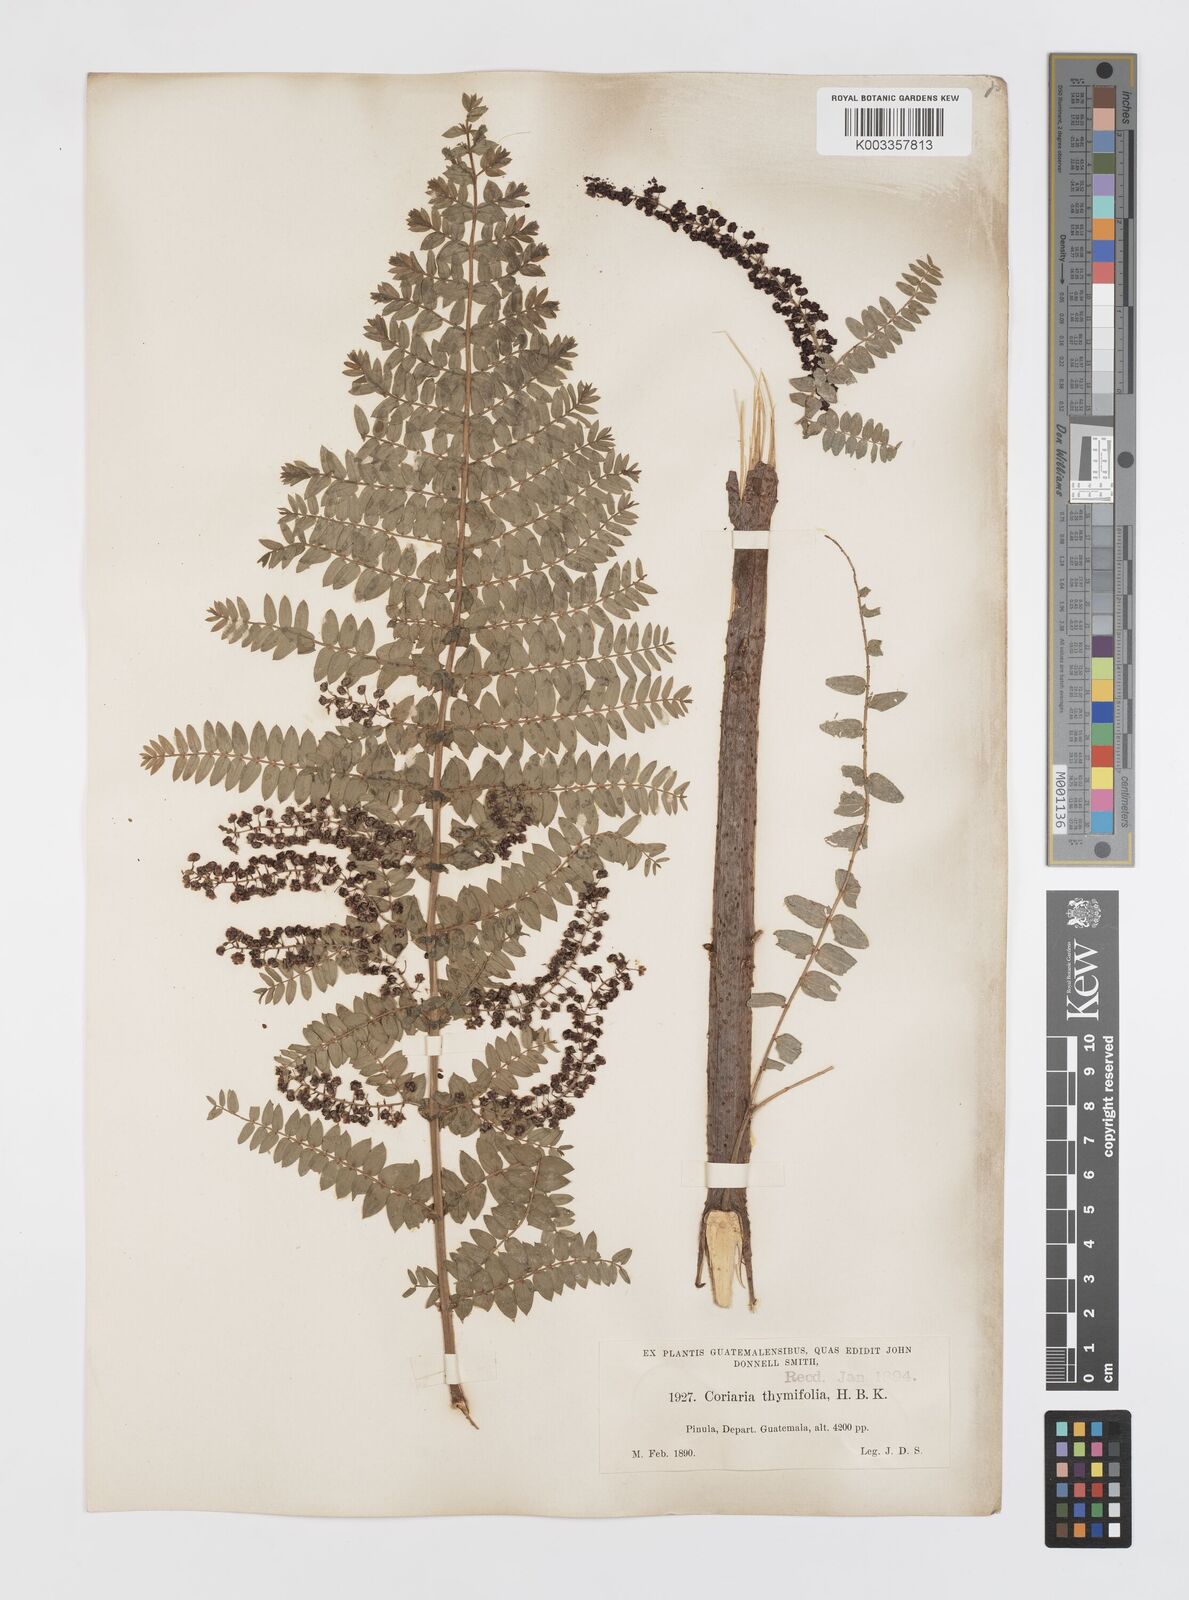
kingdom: Plantae
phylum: Tracheophyta
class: Magnoliopsida
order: Cucurbitales
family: Coriariaceae
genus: Coriaria
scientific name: Coriaria microphylla
